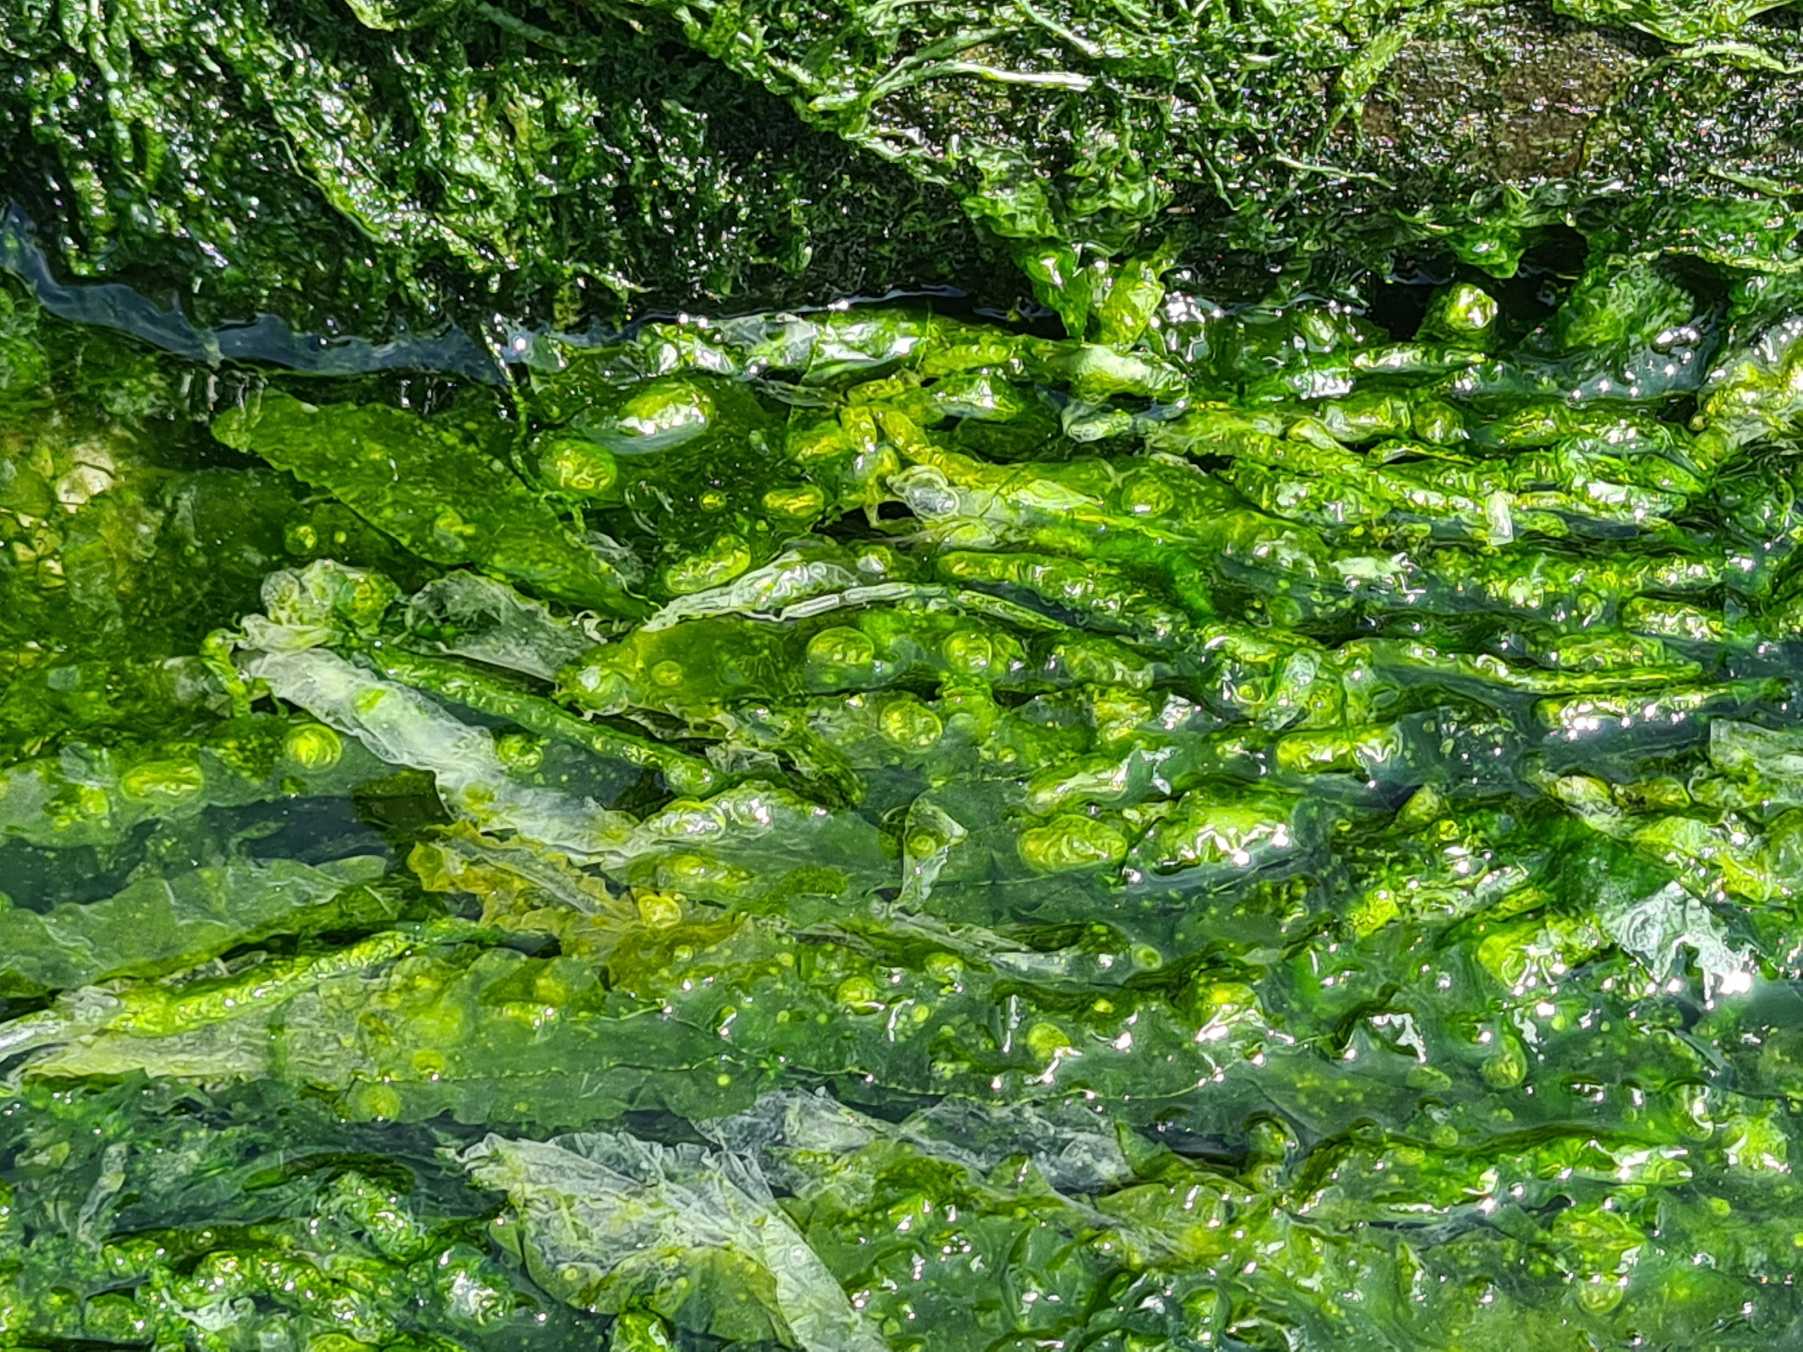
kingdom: Plantae
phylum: Chlorophyta
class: Ulvophyceae
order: Ulvales
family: Ulvaceae
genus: Ulva
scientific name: Ulva
